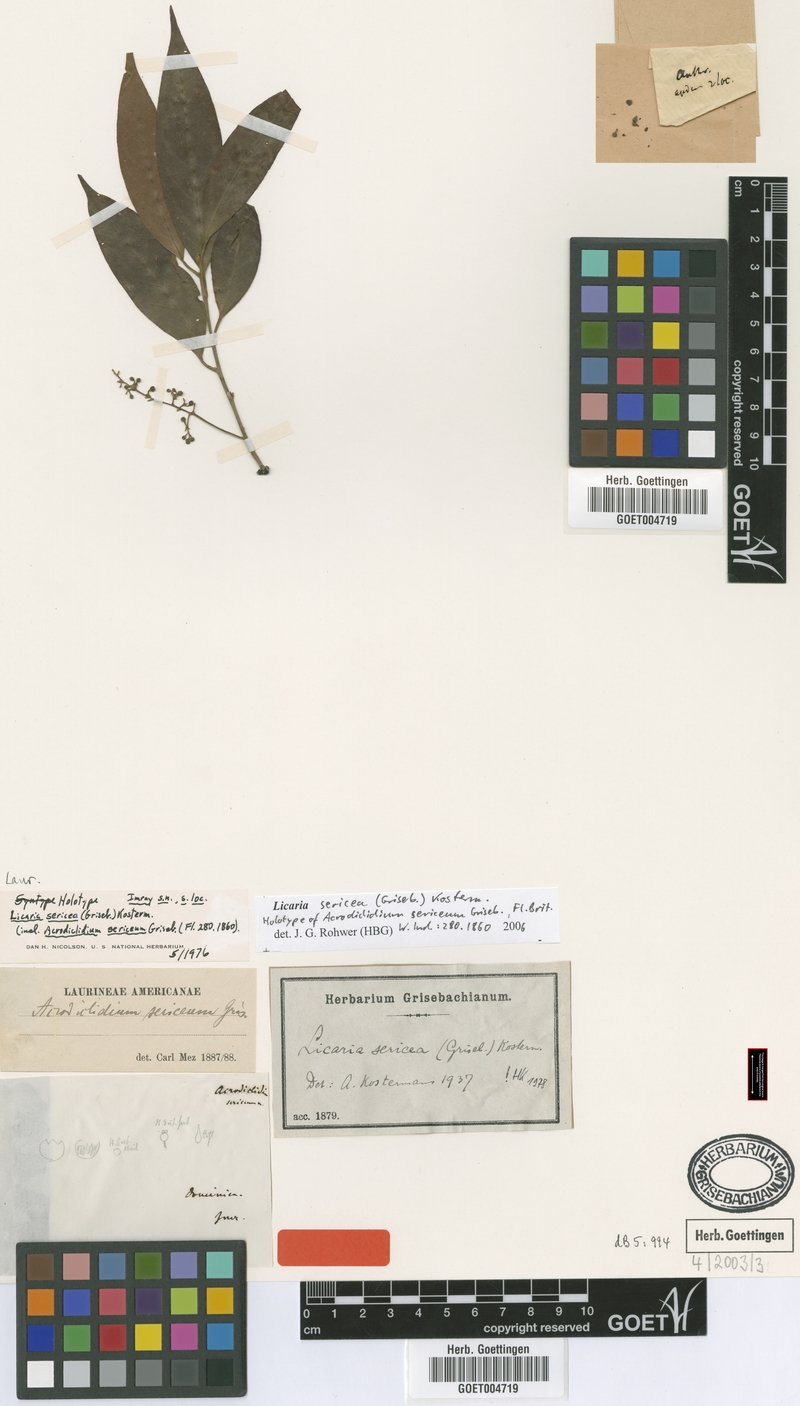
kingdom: Plantae
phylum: Tracheophyta
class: Magnoliopsida
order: Laurales
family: Lauraceae
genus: Licaria
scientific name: Licaria sericea
